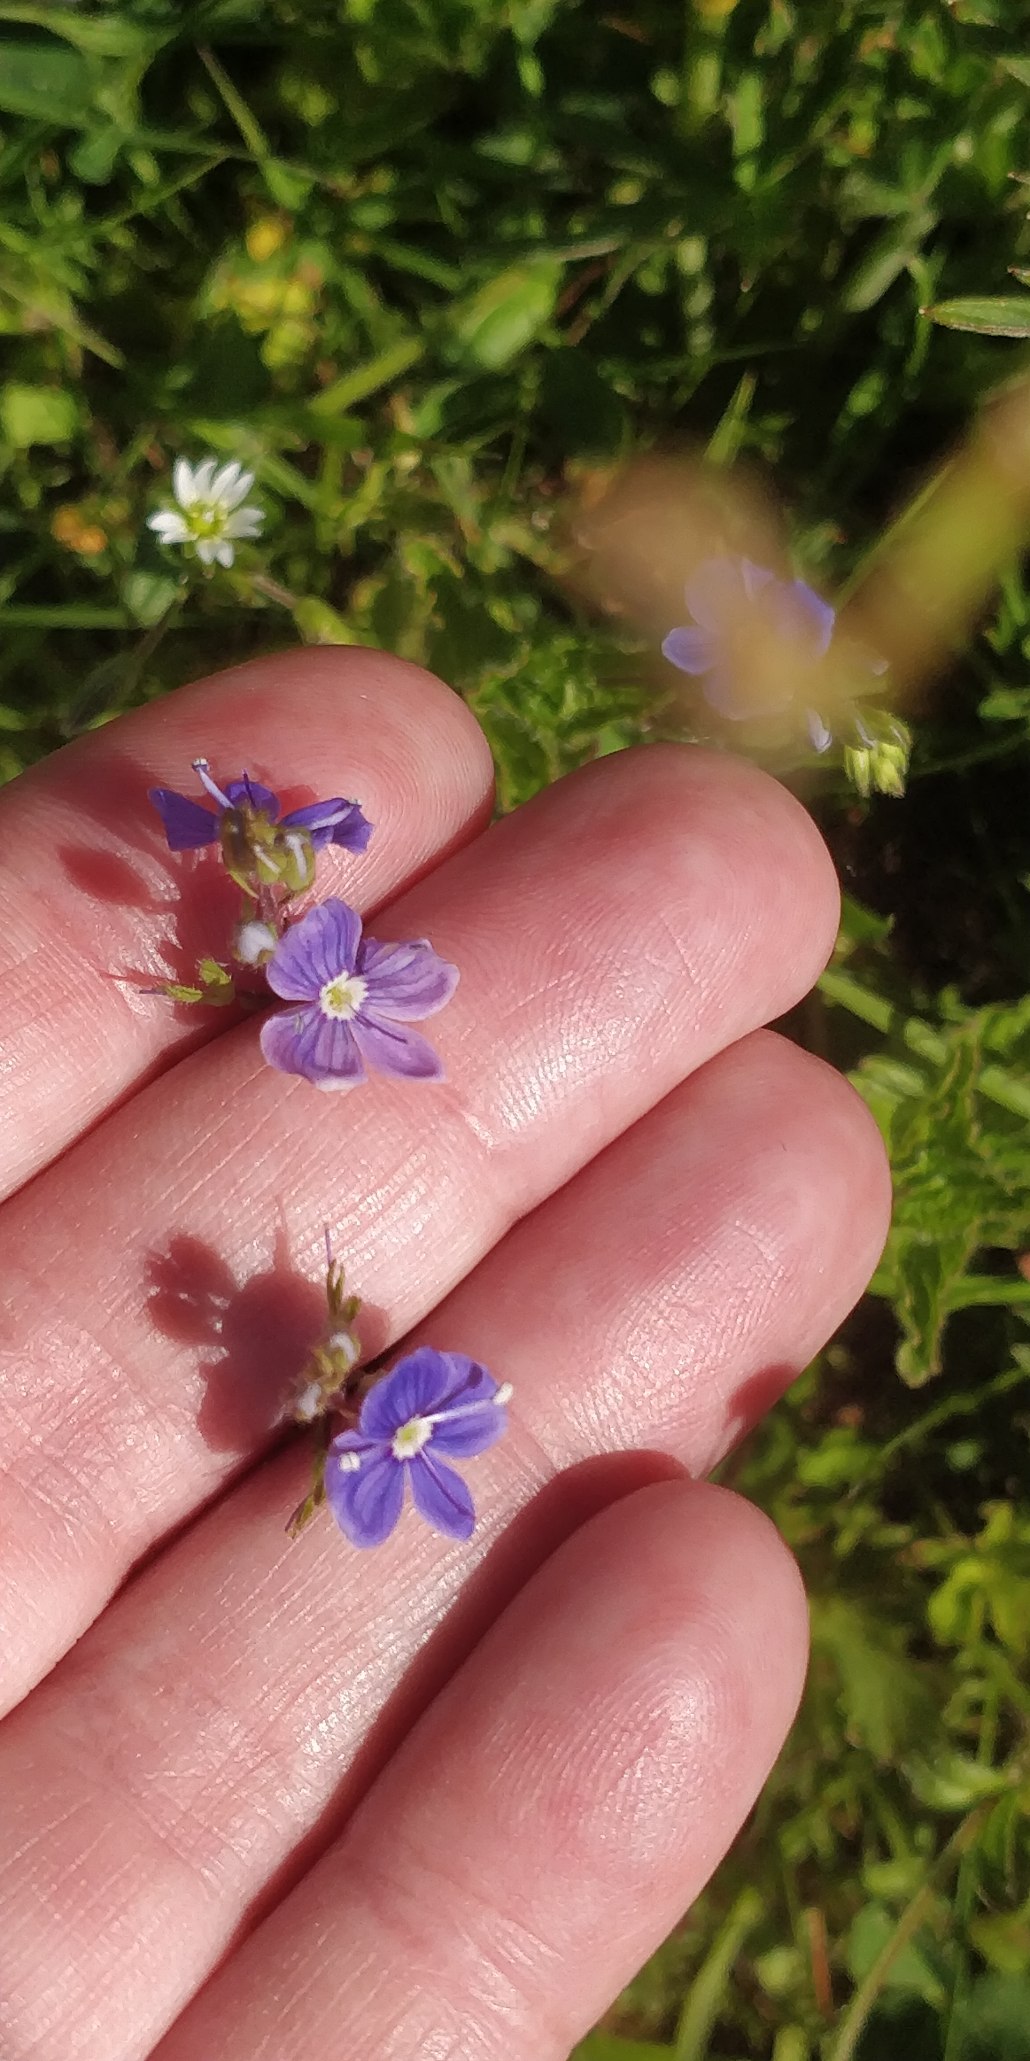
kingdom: Plantae
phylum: Tracheophyta
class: Magnoliopsida
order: Lamiales
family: Plantaginaceae
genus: Veronica
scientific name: Veronica chamaedrys
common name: Tveskægget ærenpris
